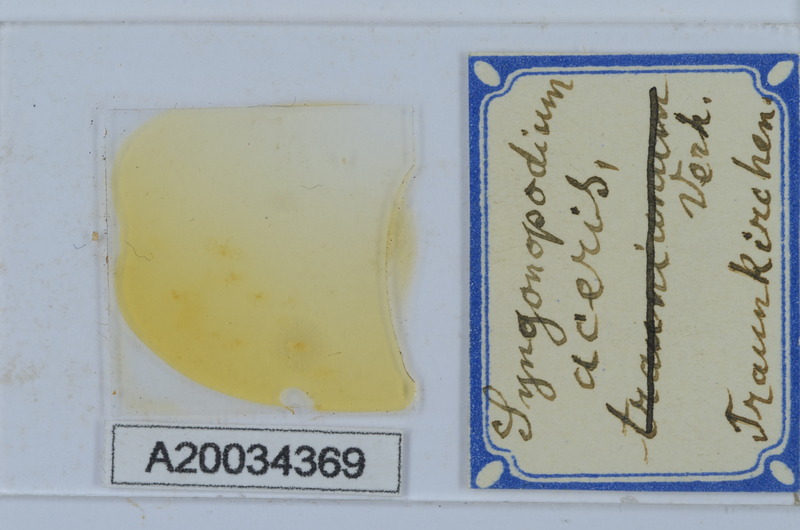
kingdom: Animalia
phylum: Arthropoda
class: Diplopoda
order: Chordeumatida
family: Attemsiidae
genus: Syngonopodium
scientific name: Syngonopodium aceris
